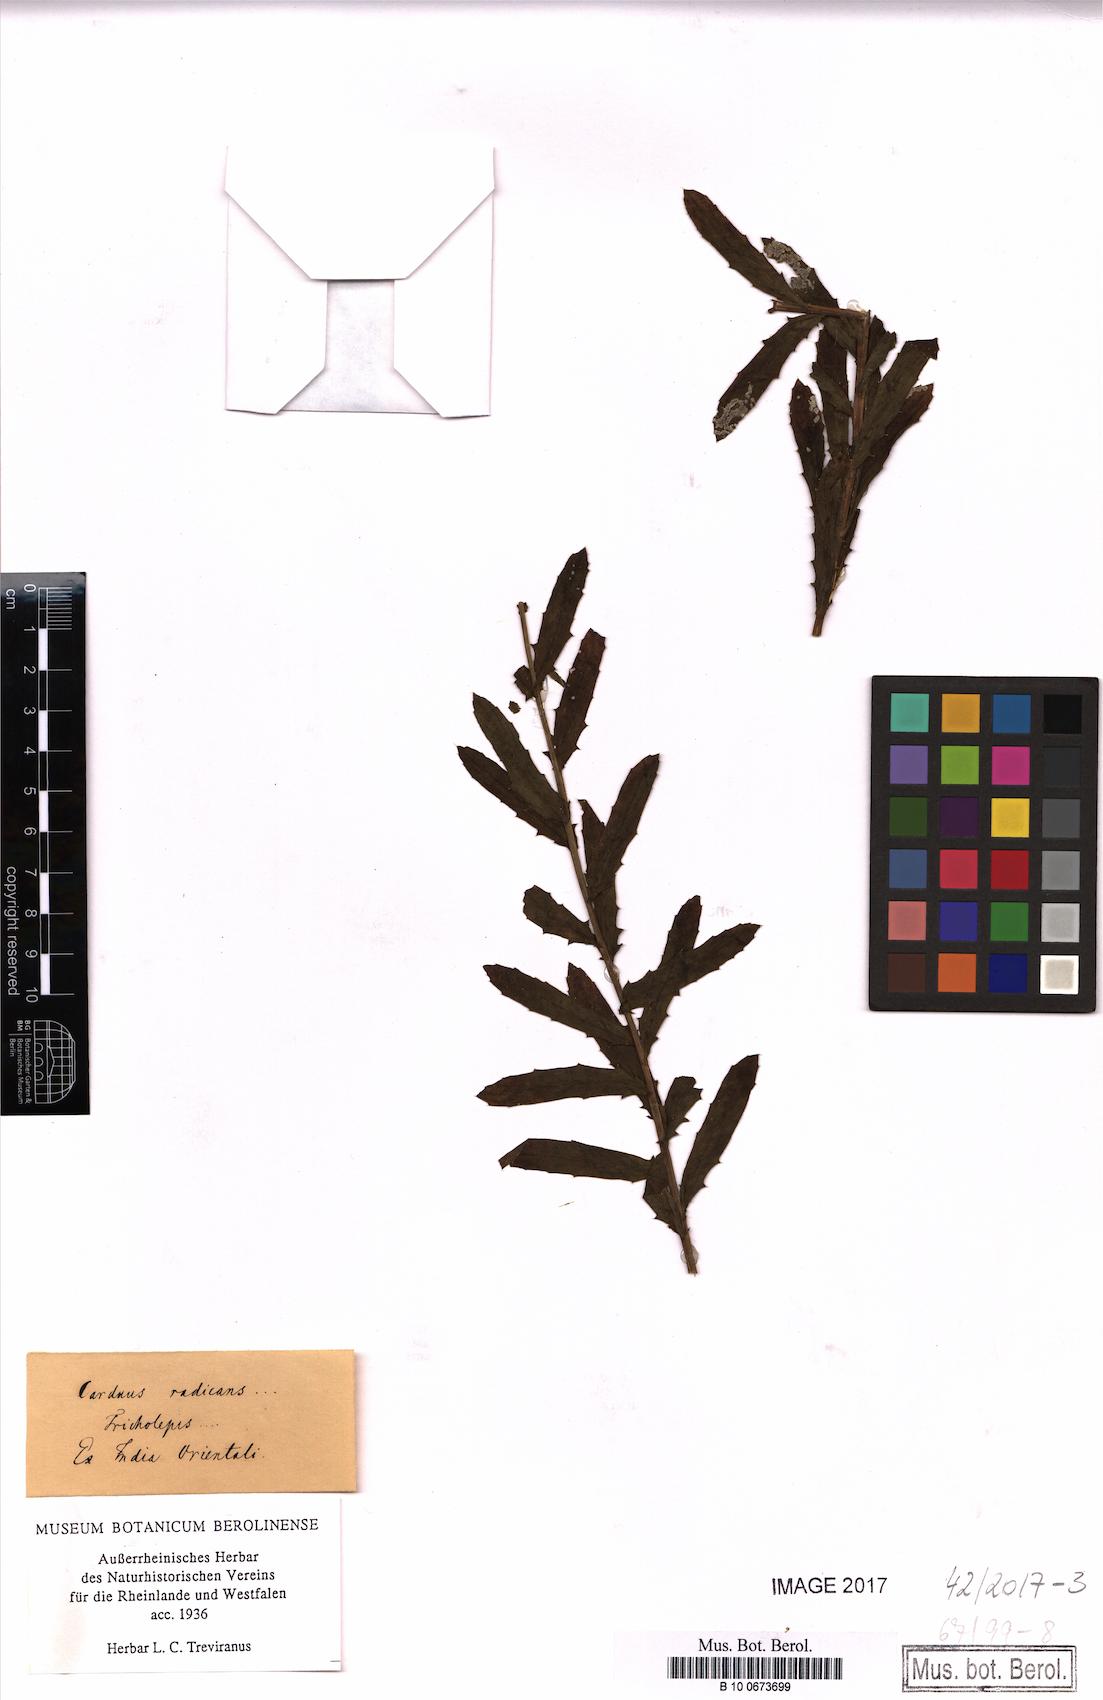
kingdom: Plantae
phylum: Tracheophyta
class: Magnoliopsida
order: Asterales
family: Asteraceae
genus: Tricholepis
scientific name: Tricholepis radicans
